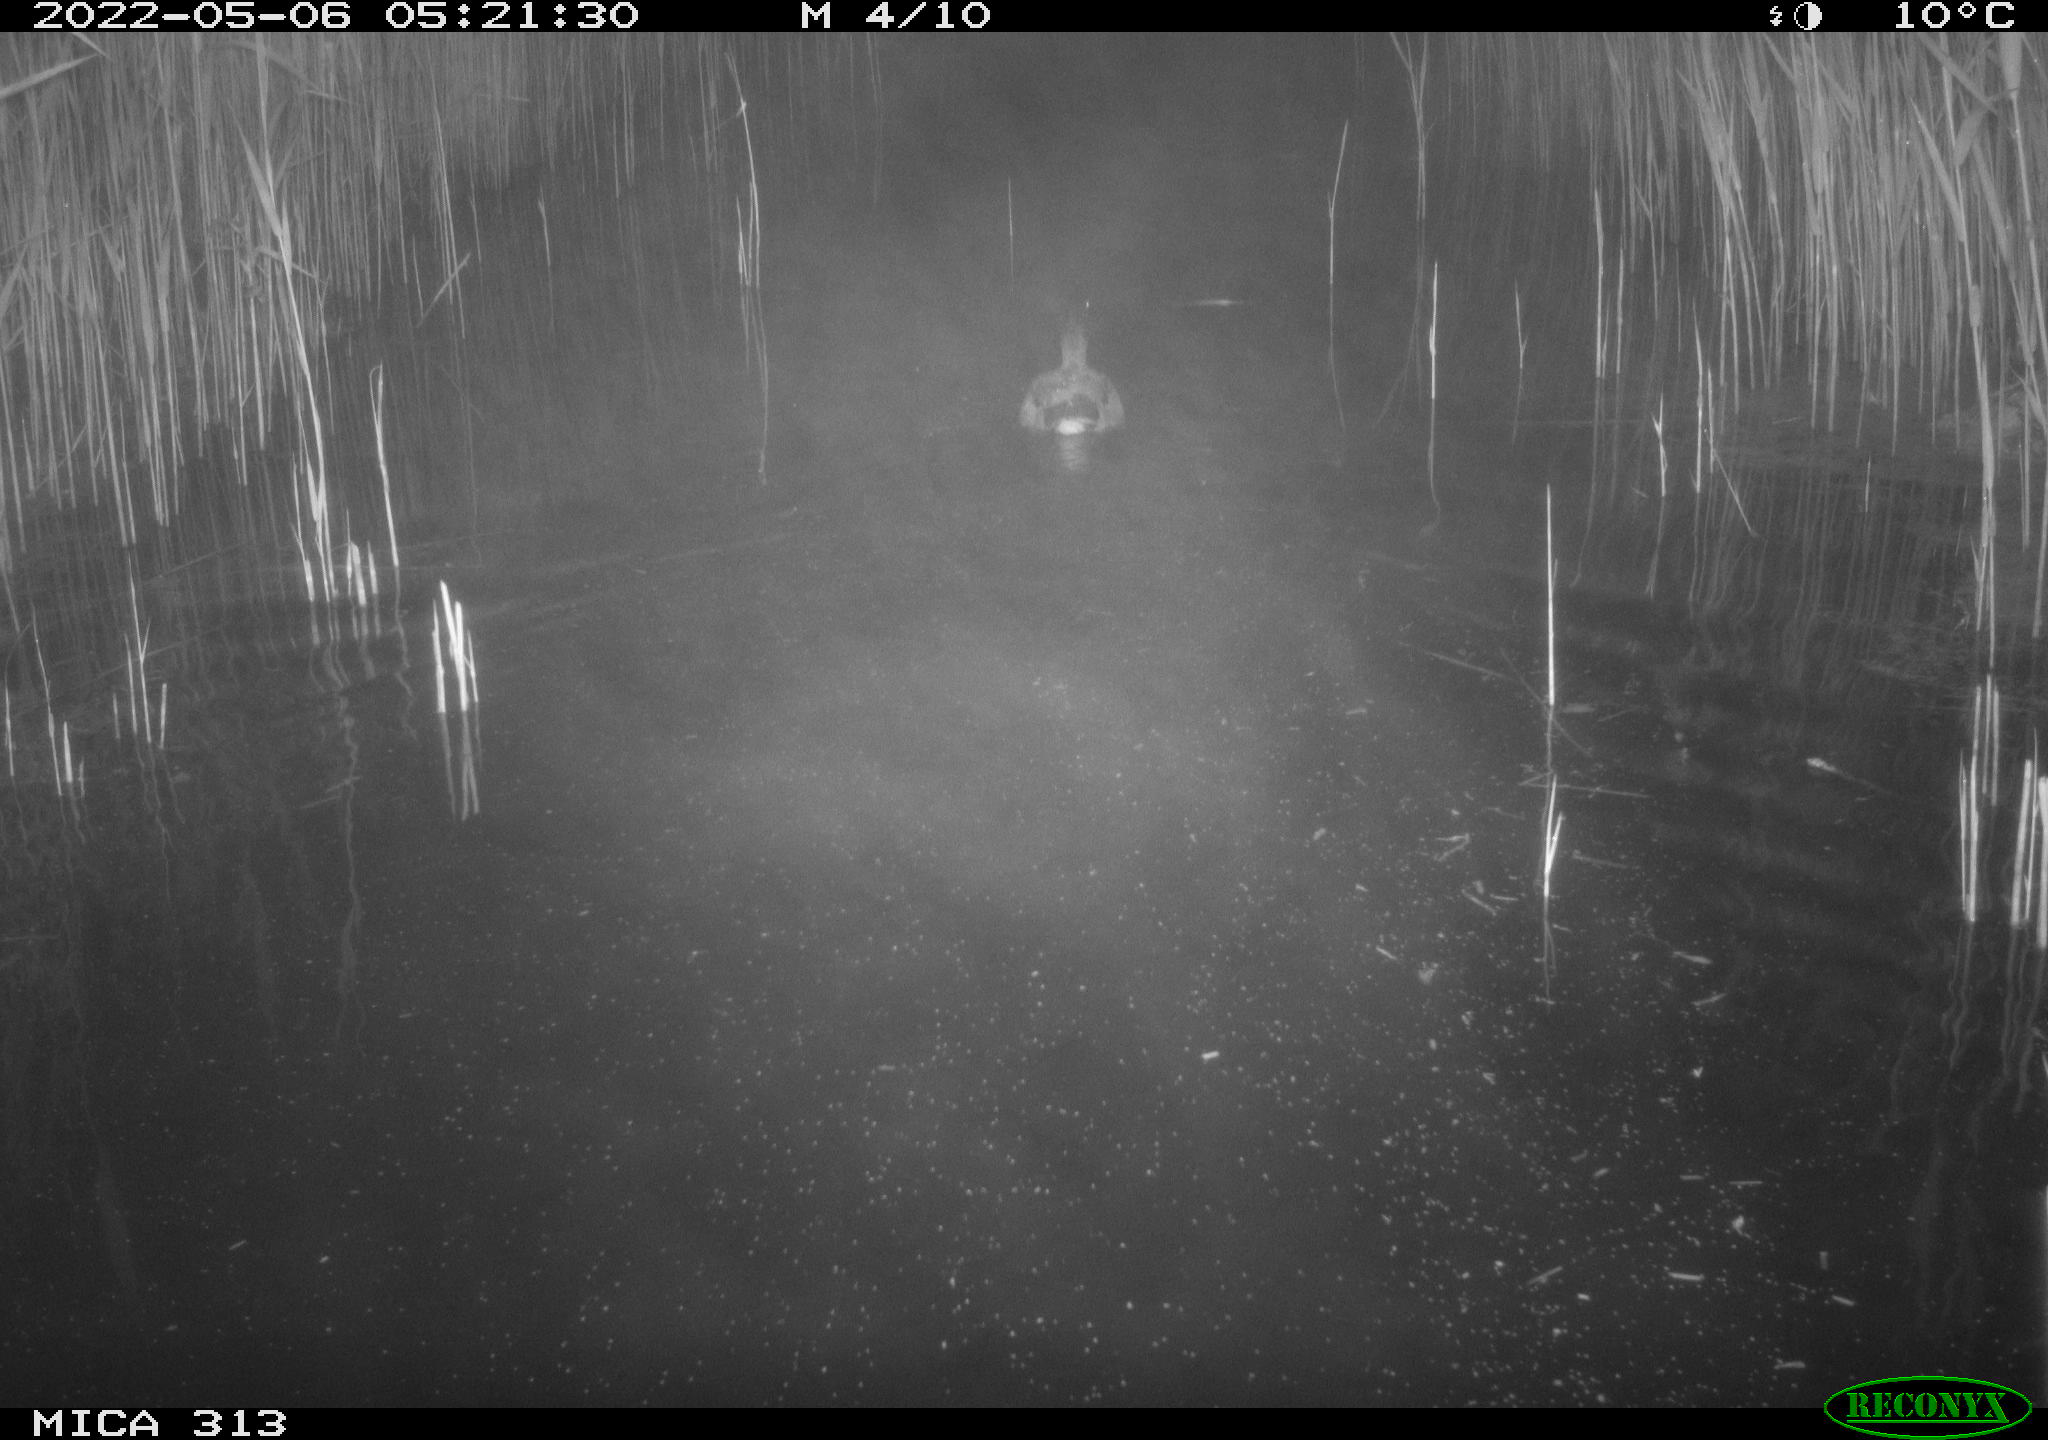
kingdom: Animalia
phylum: Chordata
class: Aves
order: Anseriformes
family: Anatidae
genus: Anas
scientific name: Anas platyrhynchos
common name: Mallard
